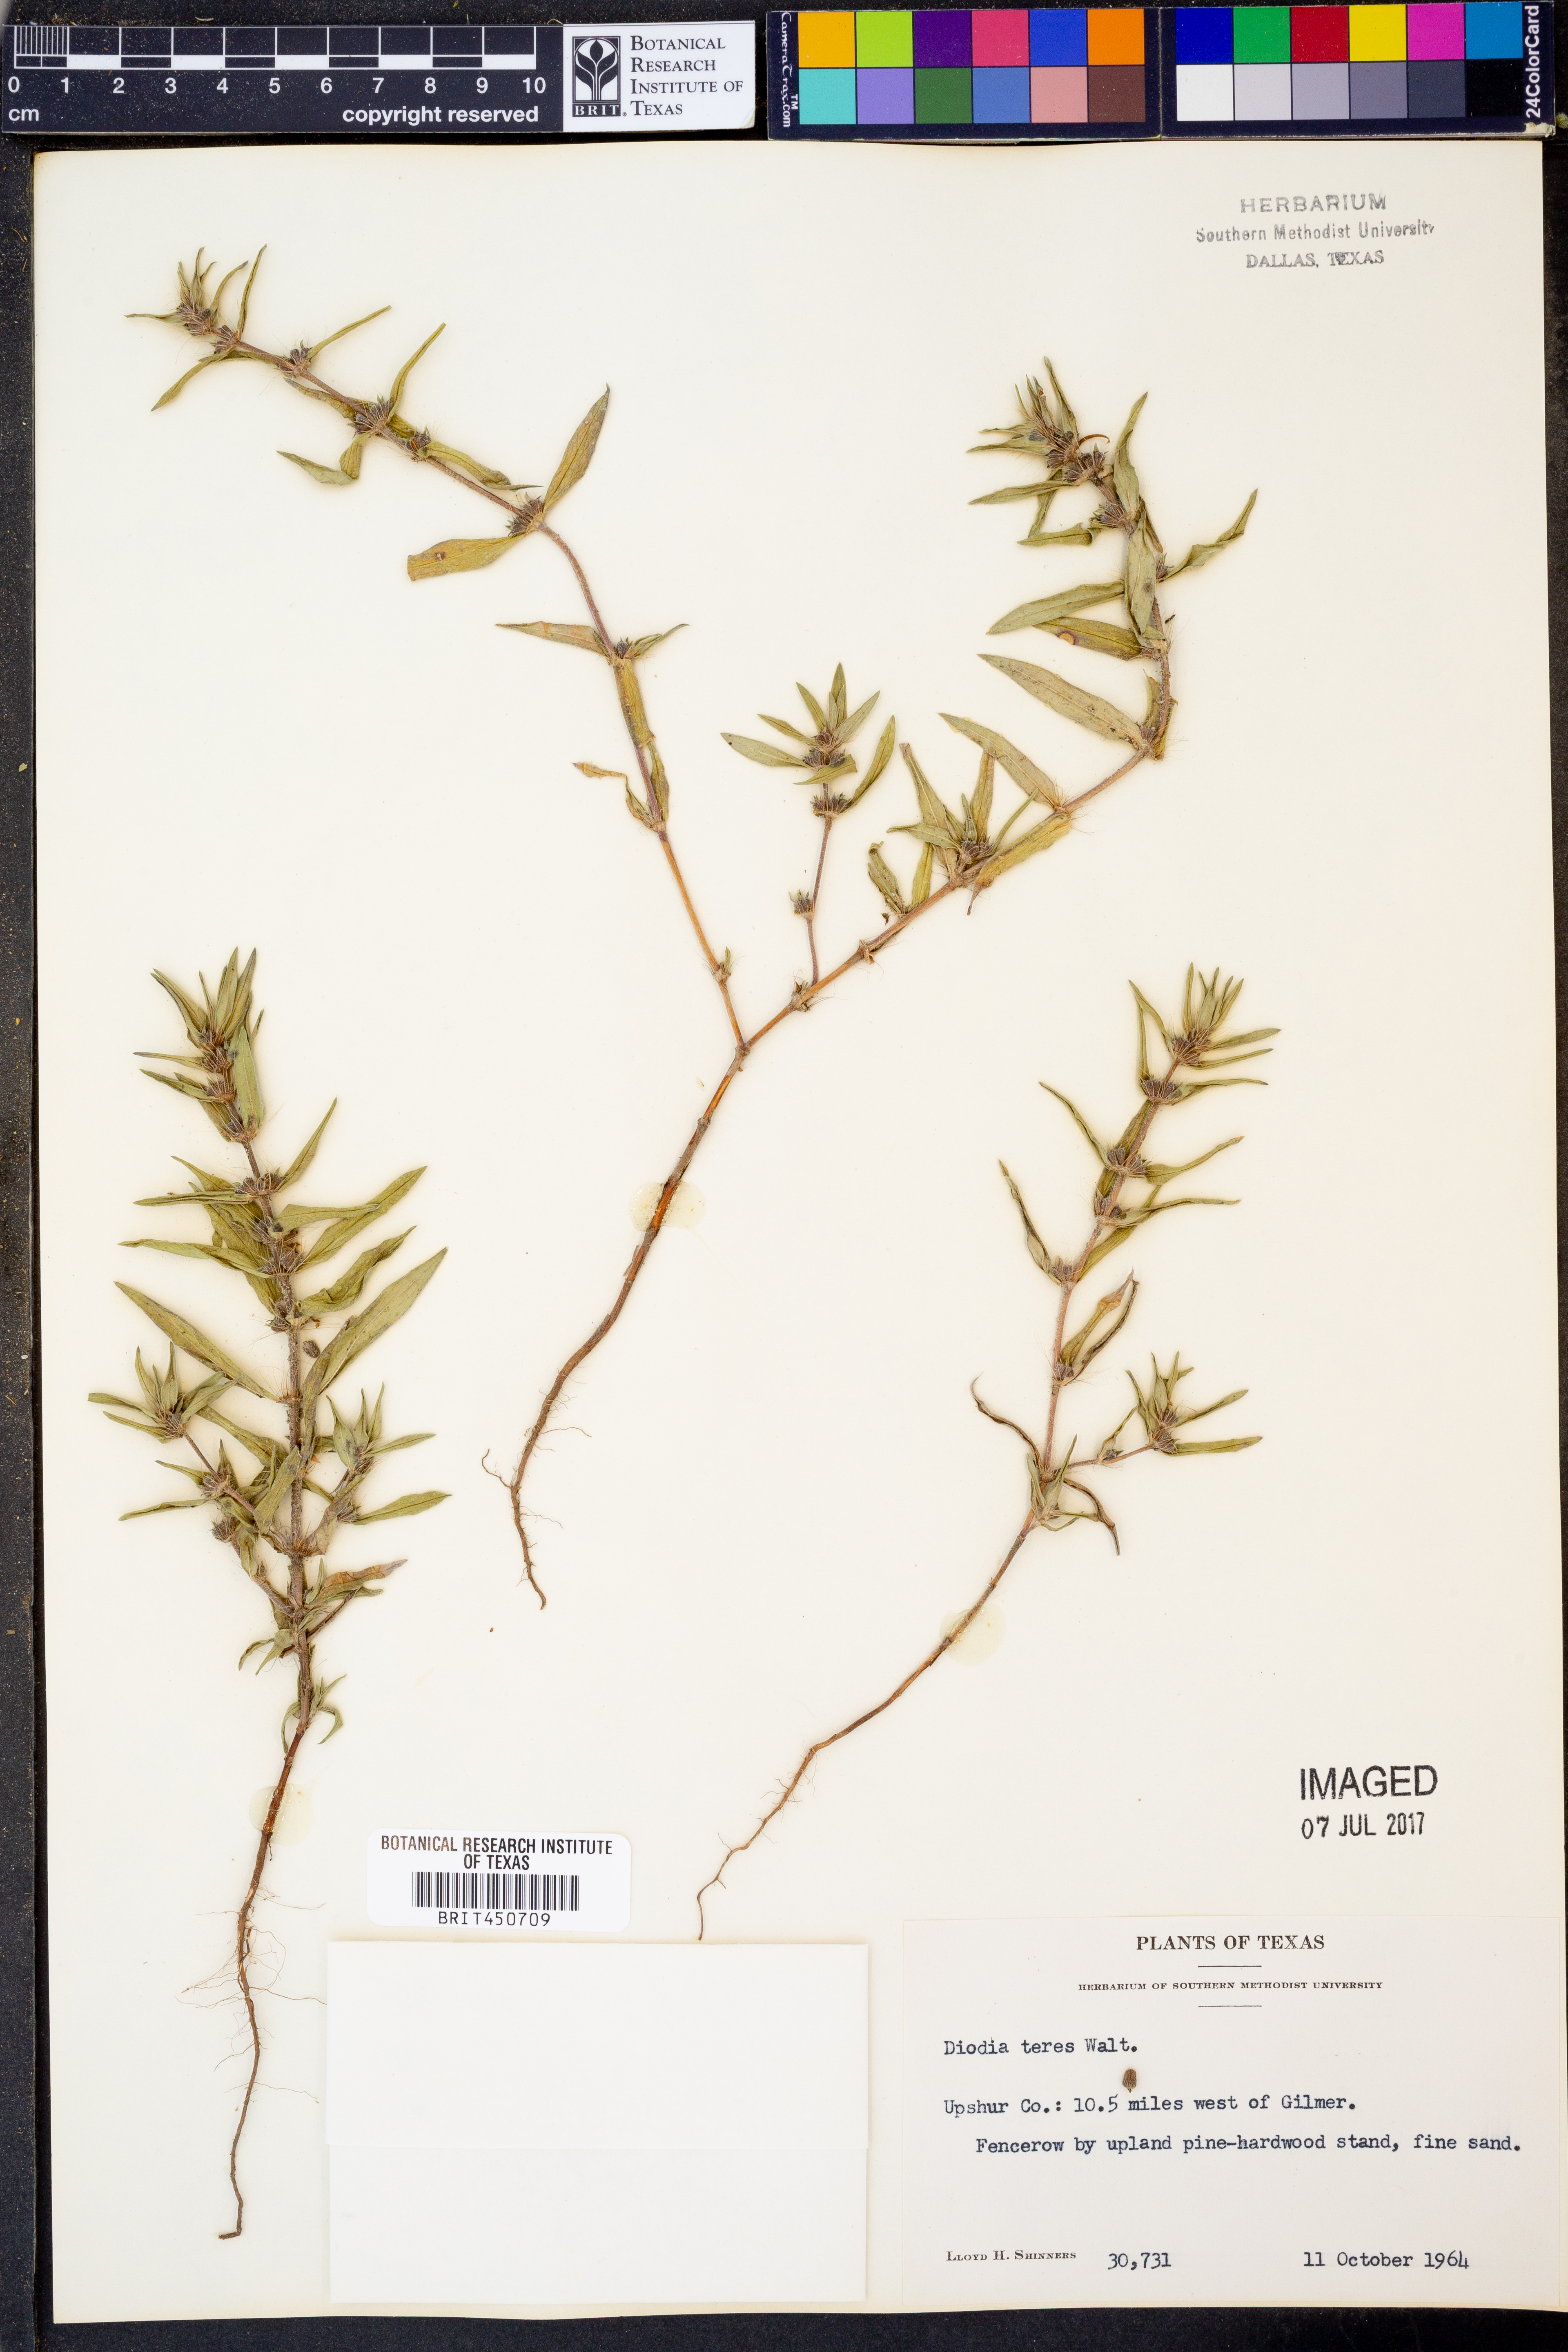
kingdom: Plantae
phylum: Tracheophyta
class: Magnoliopsida
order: Gentianales
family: Rubiaceae
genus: Hexasepalum
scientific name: Hexasepalum teres
